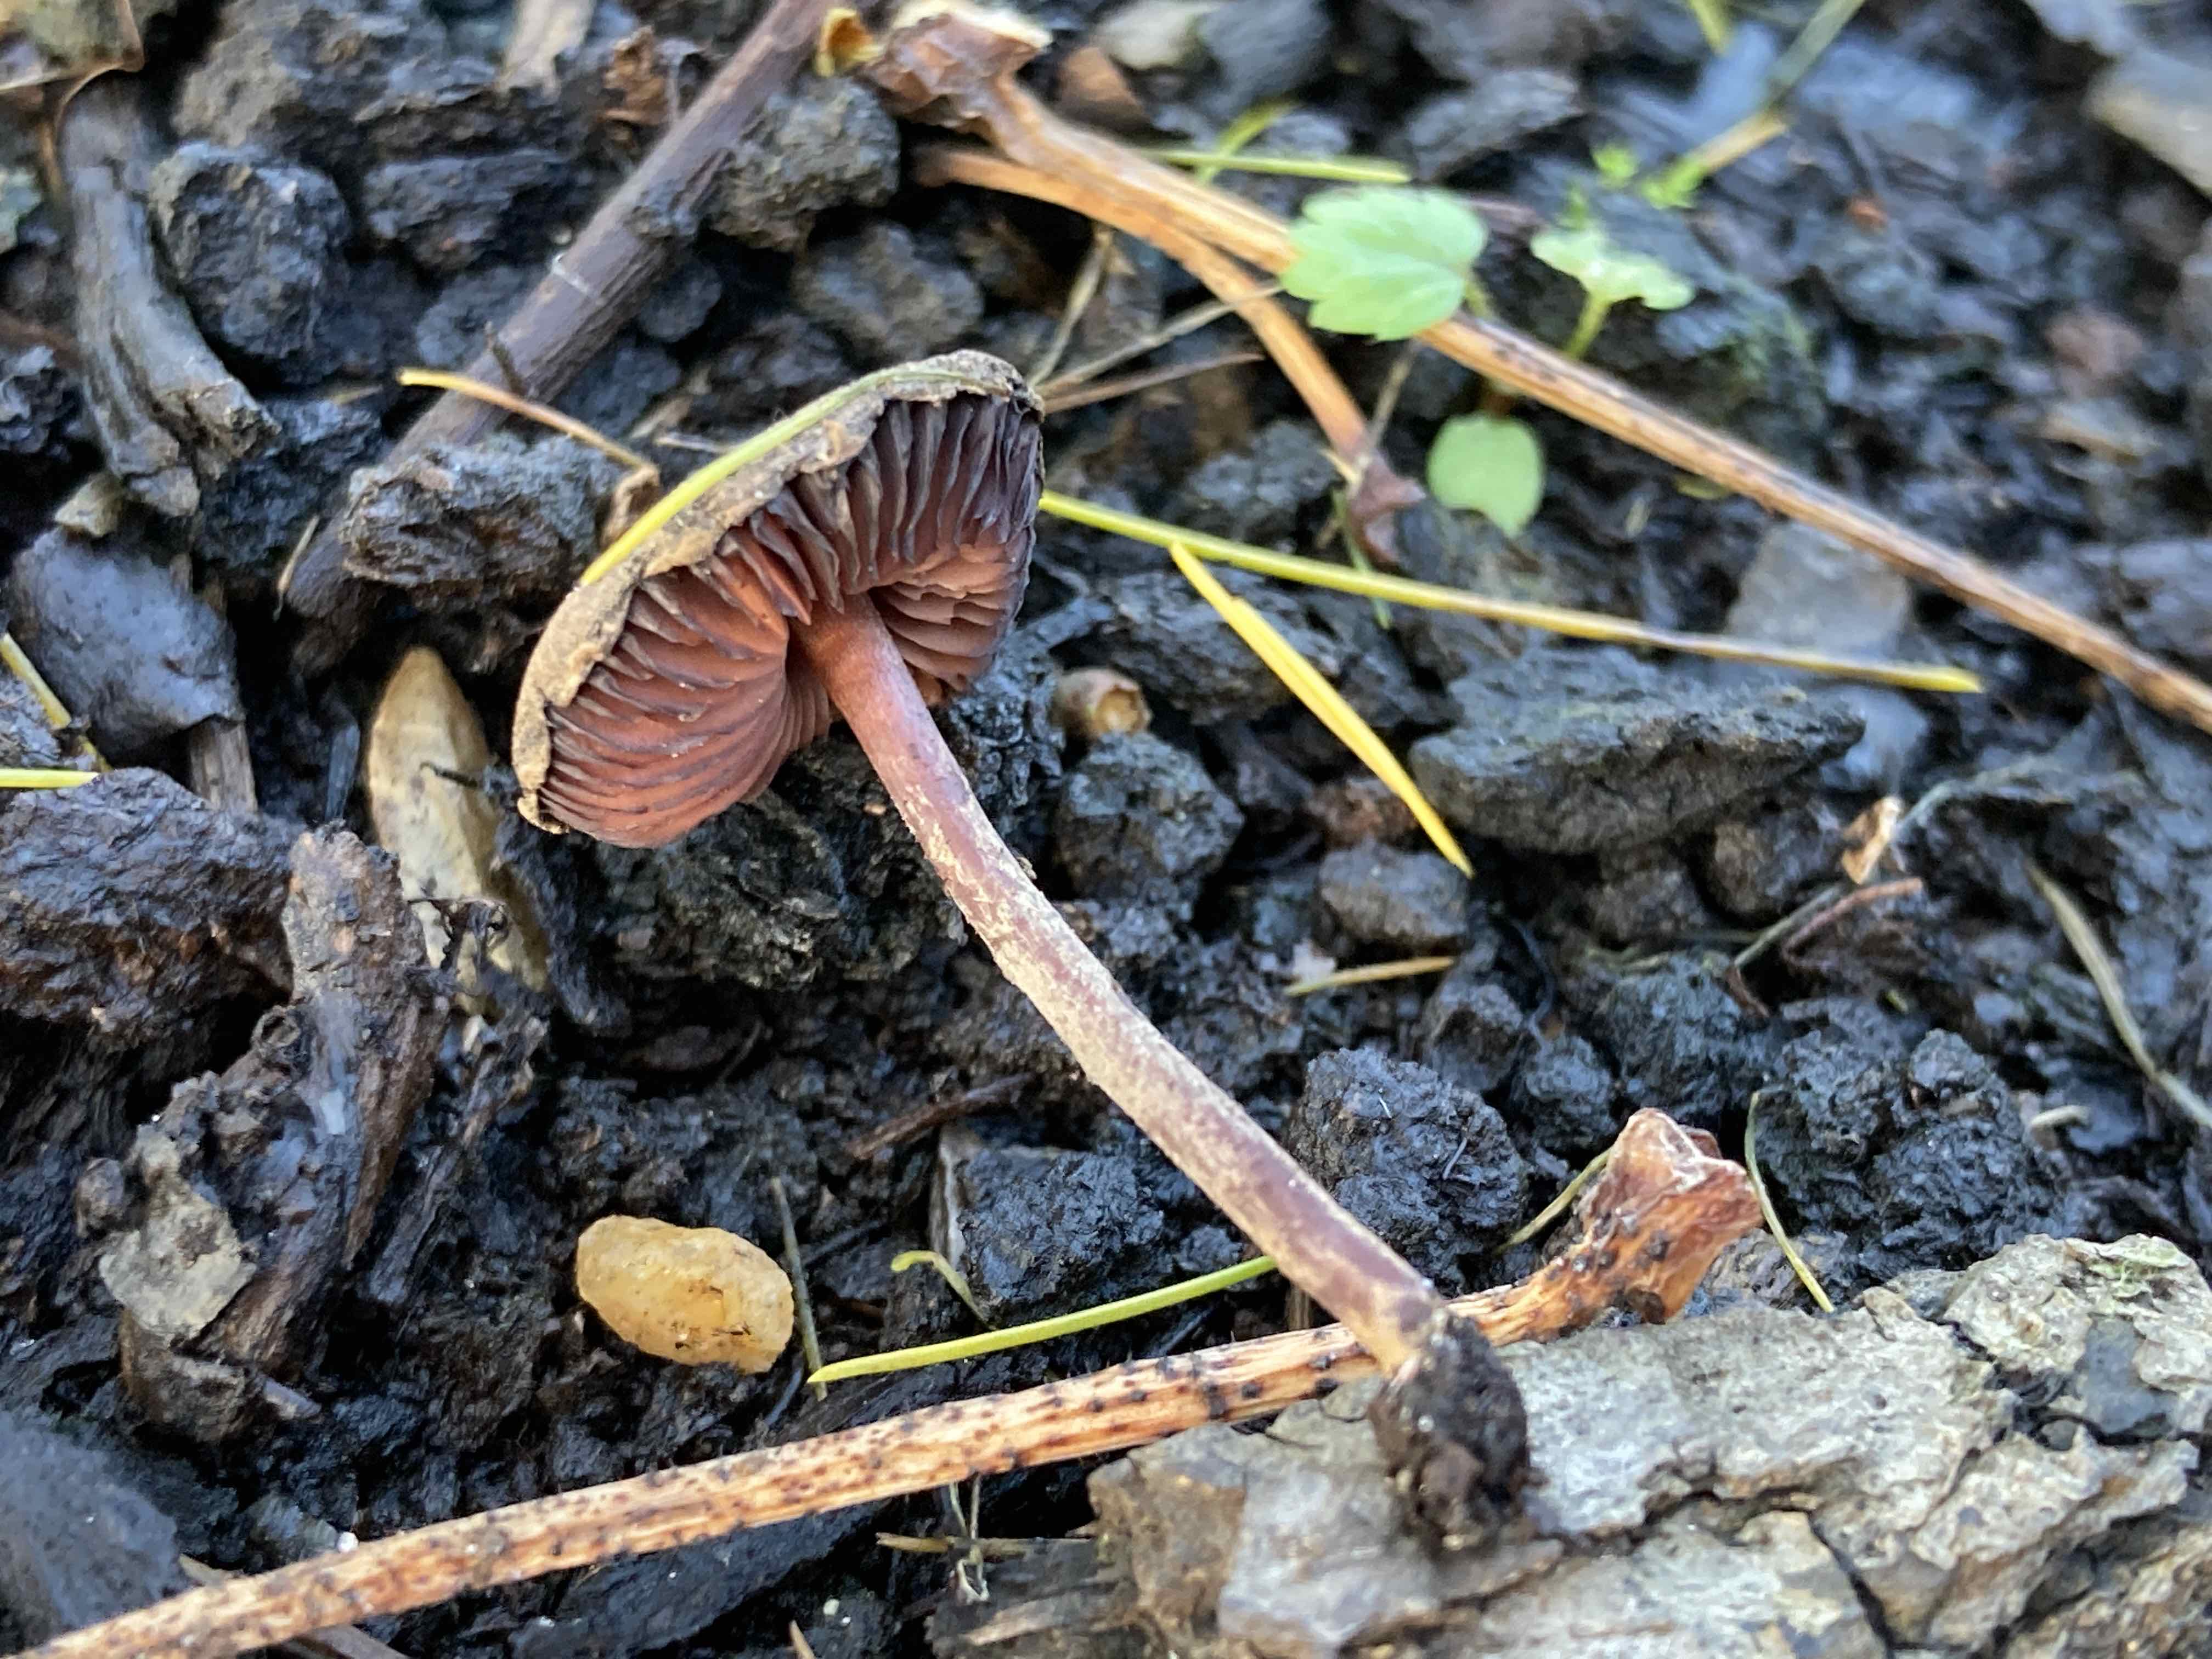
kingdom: Fungi
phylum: Basidiomycota
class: Agaricomycetes
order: Agaricales
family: Agaricaceae
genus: Melanophyllum
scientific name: Melanophyllum haematospermum
